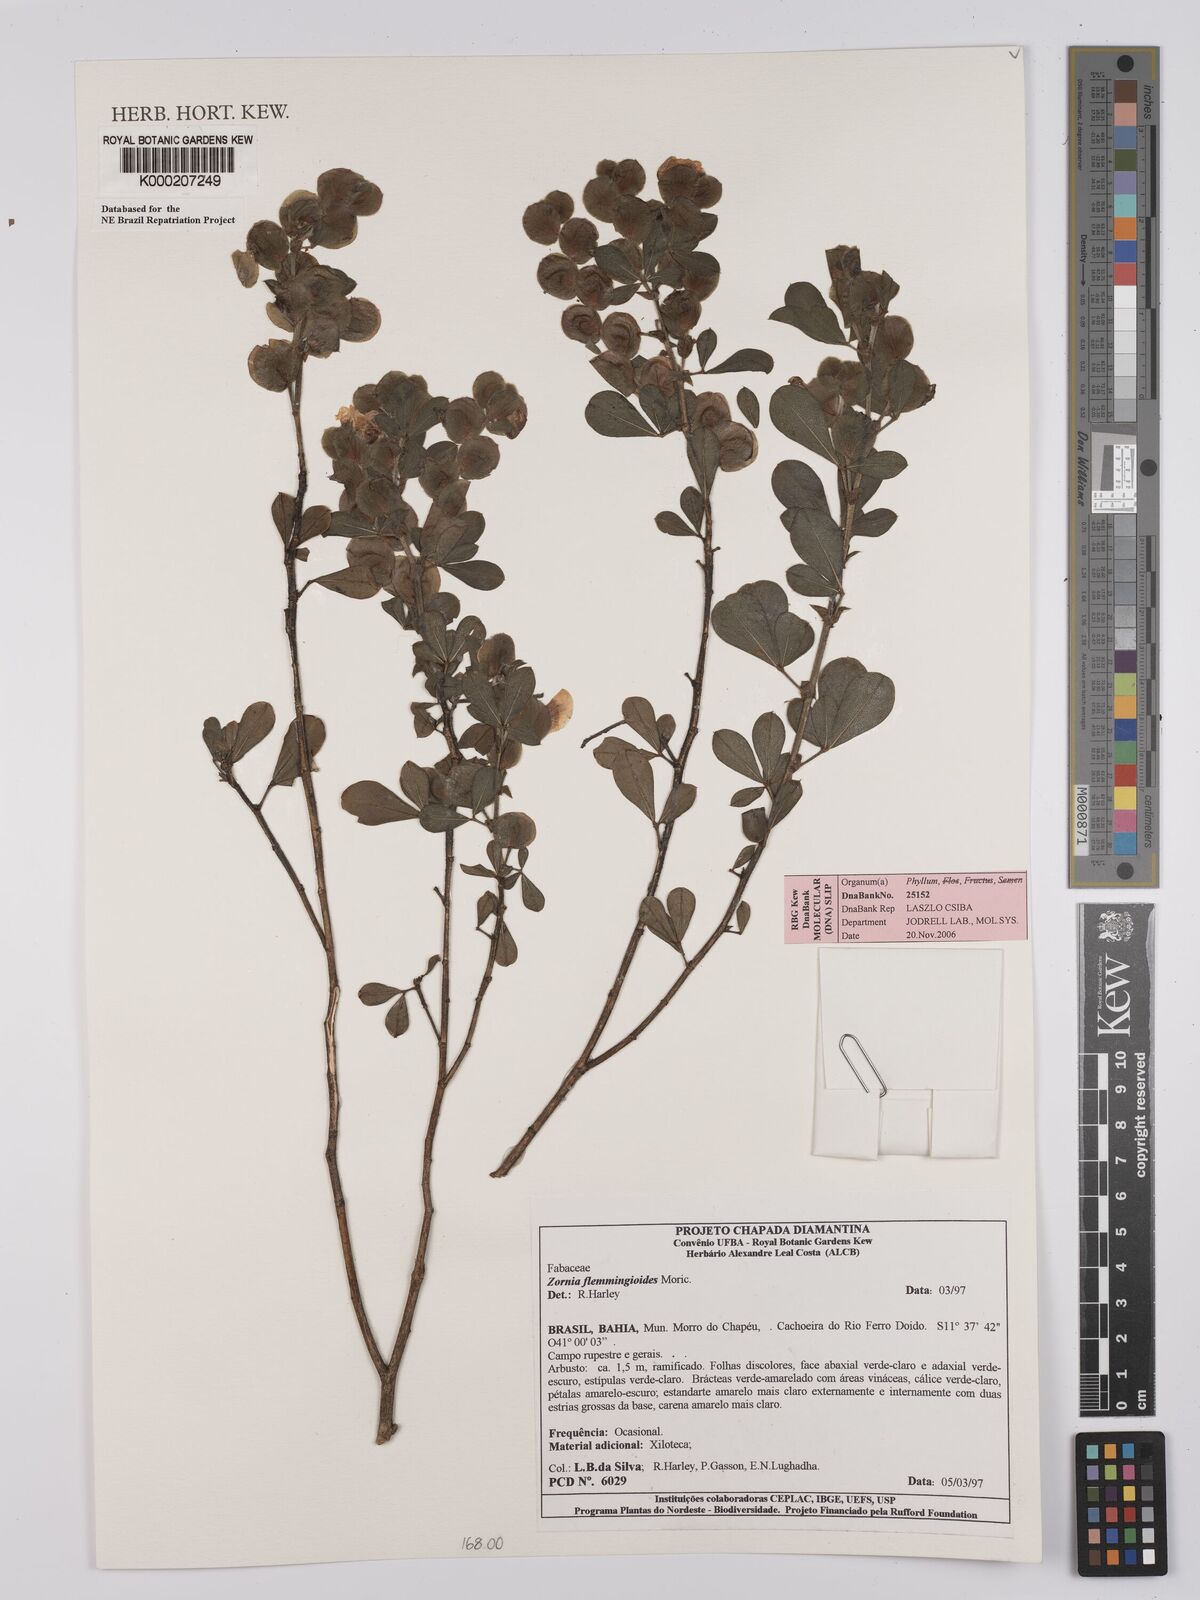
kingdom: Plantae
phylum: Tracheophyta
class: Magnoliopsida
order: Fabales
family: Fabaceae
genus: Zornia
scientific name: Zornia flemmingioides
